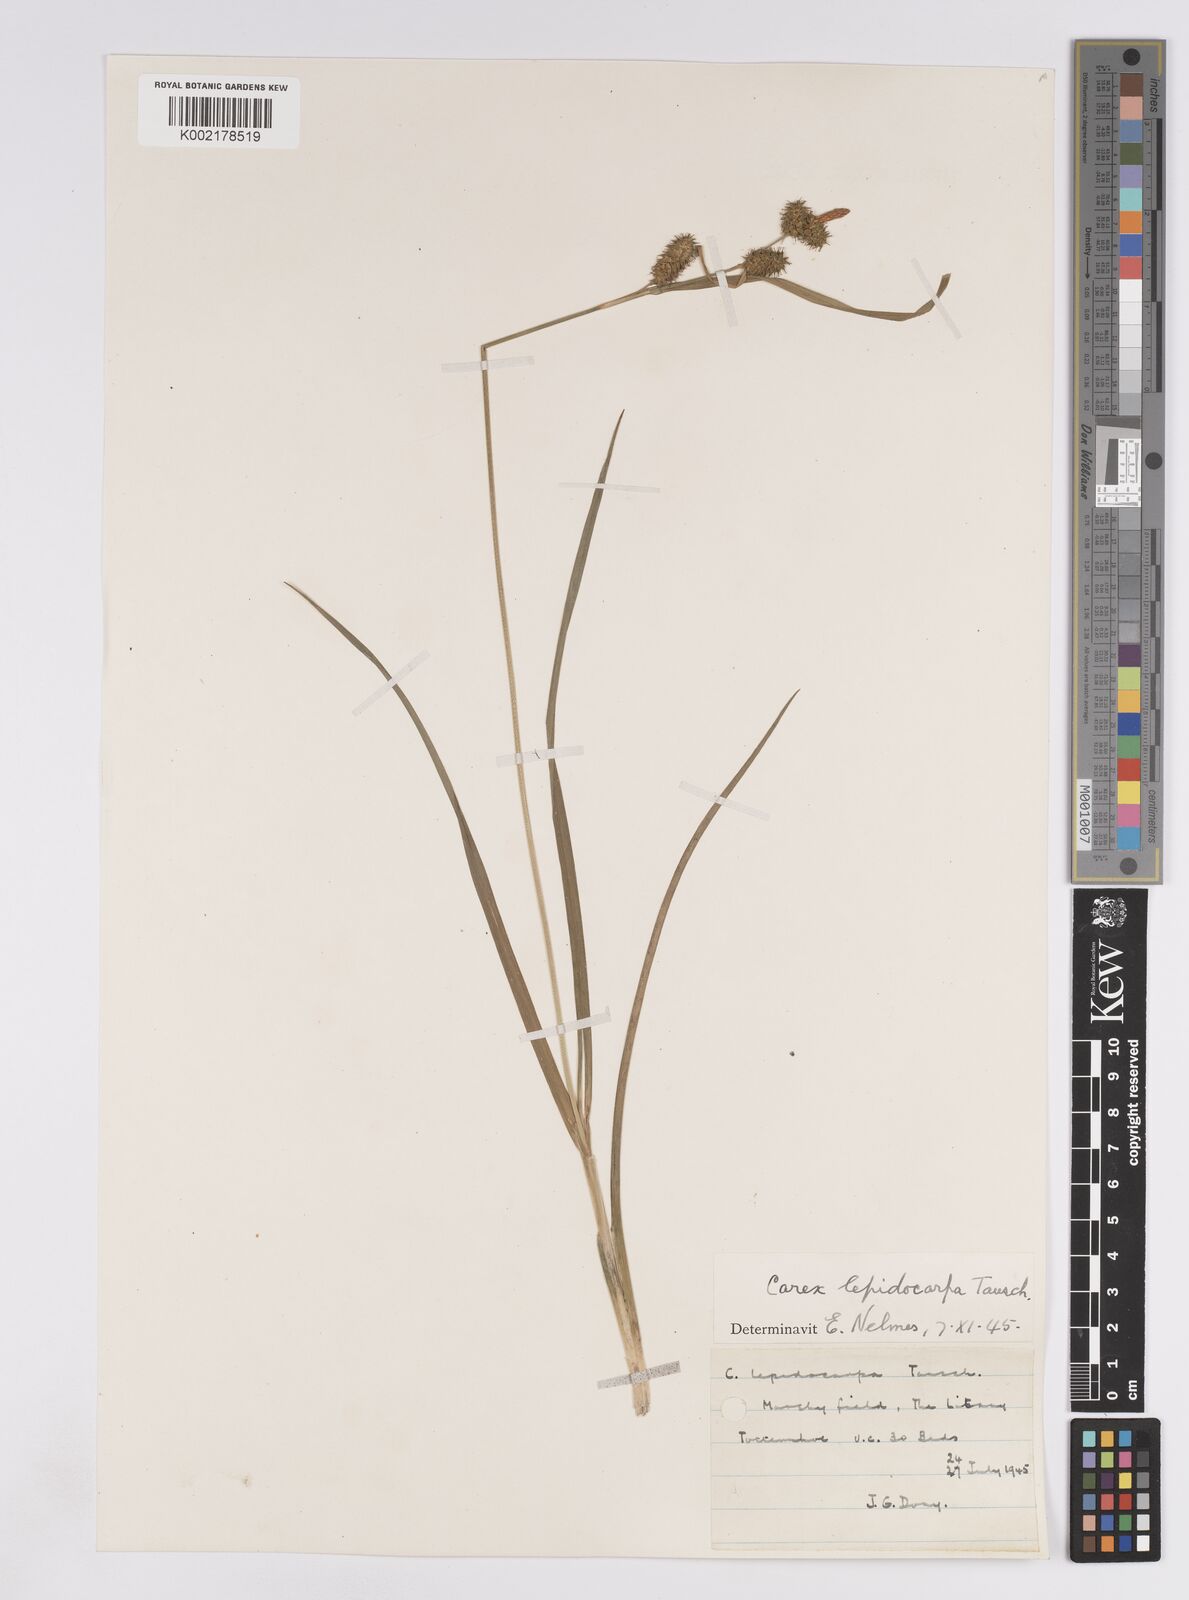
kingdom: Plantae
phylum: Tracheophyta
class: Liliopsida
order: Poales
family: Cyperaceae
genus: Carex
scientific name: Carex lepidocarpa
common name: Long-stalked yellow-sedge
